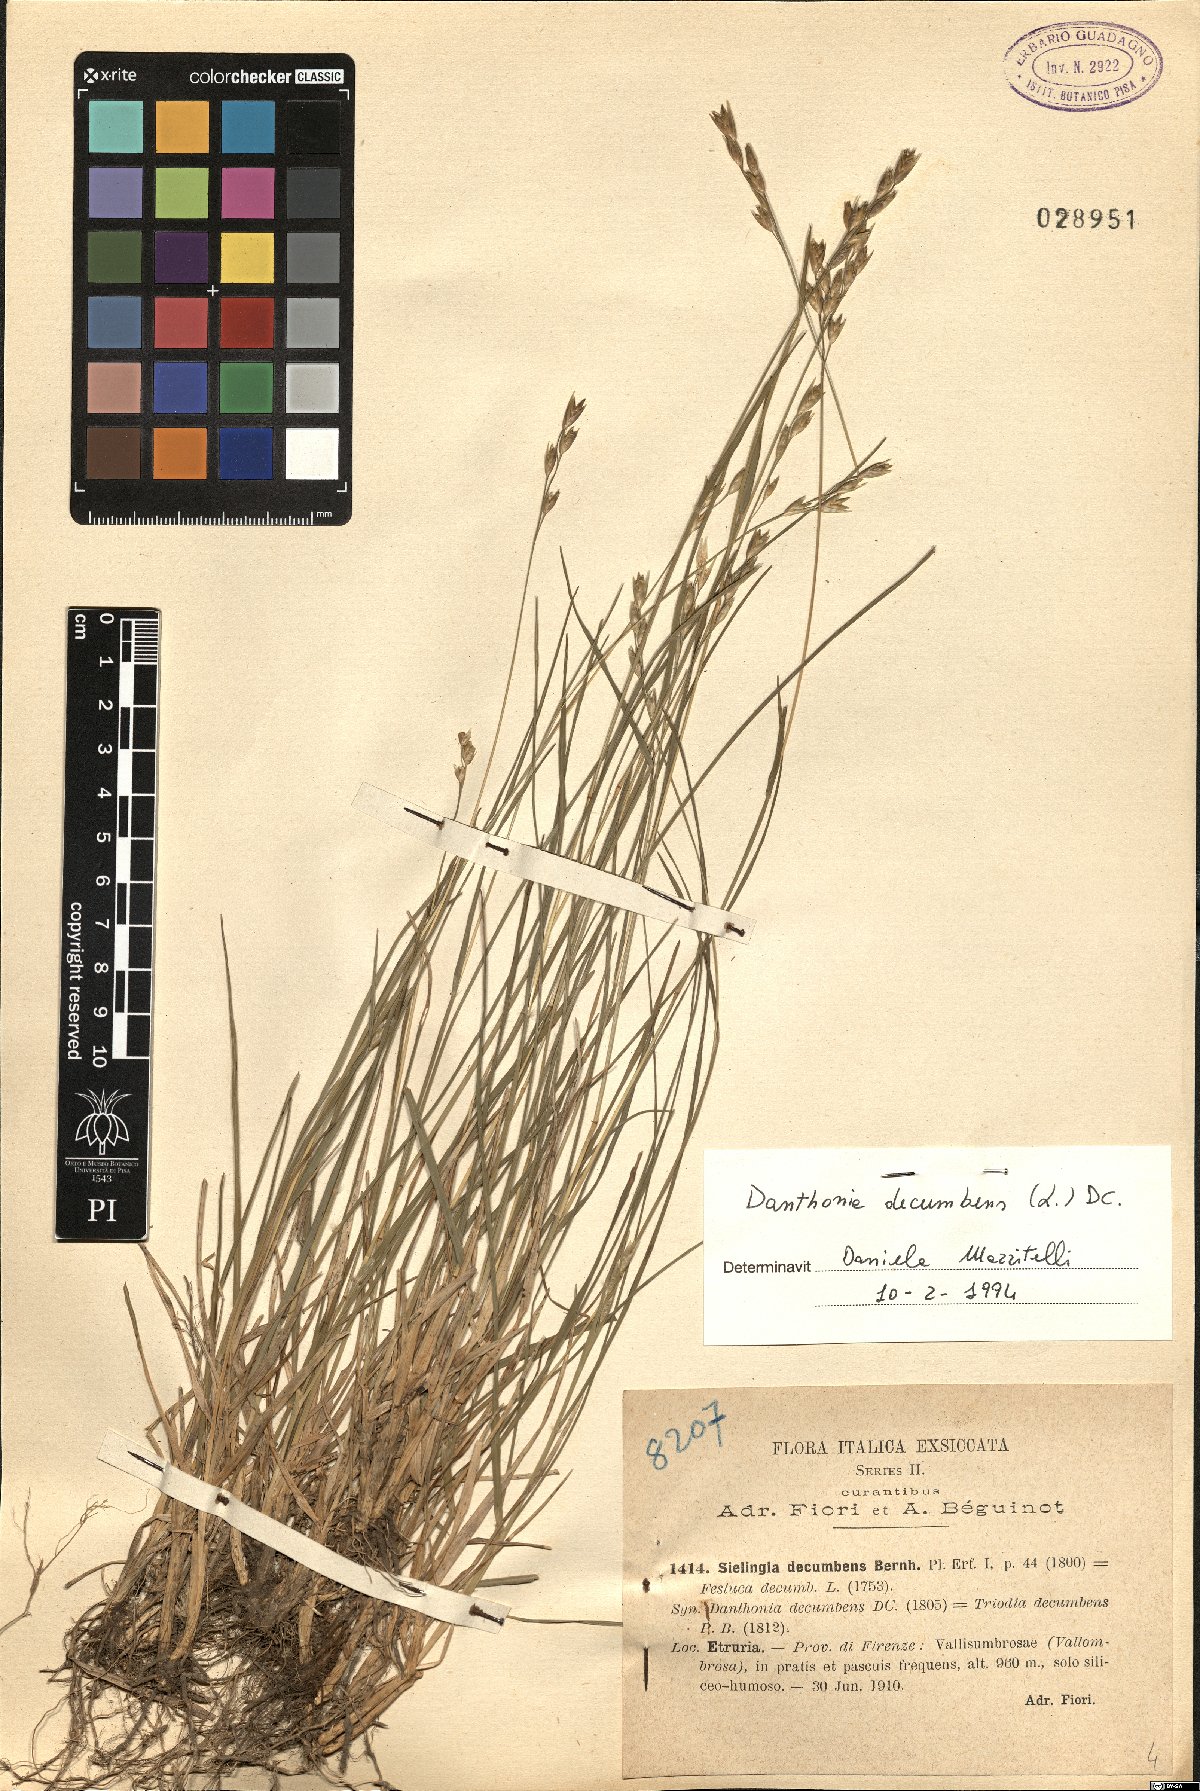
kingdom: Plantae
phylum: Tracheophyta
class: Liliopsida
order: Poales
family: Poaceae
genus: Danthonia
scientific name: Danthonia decumbens
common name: Common heathgrass
